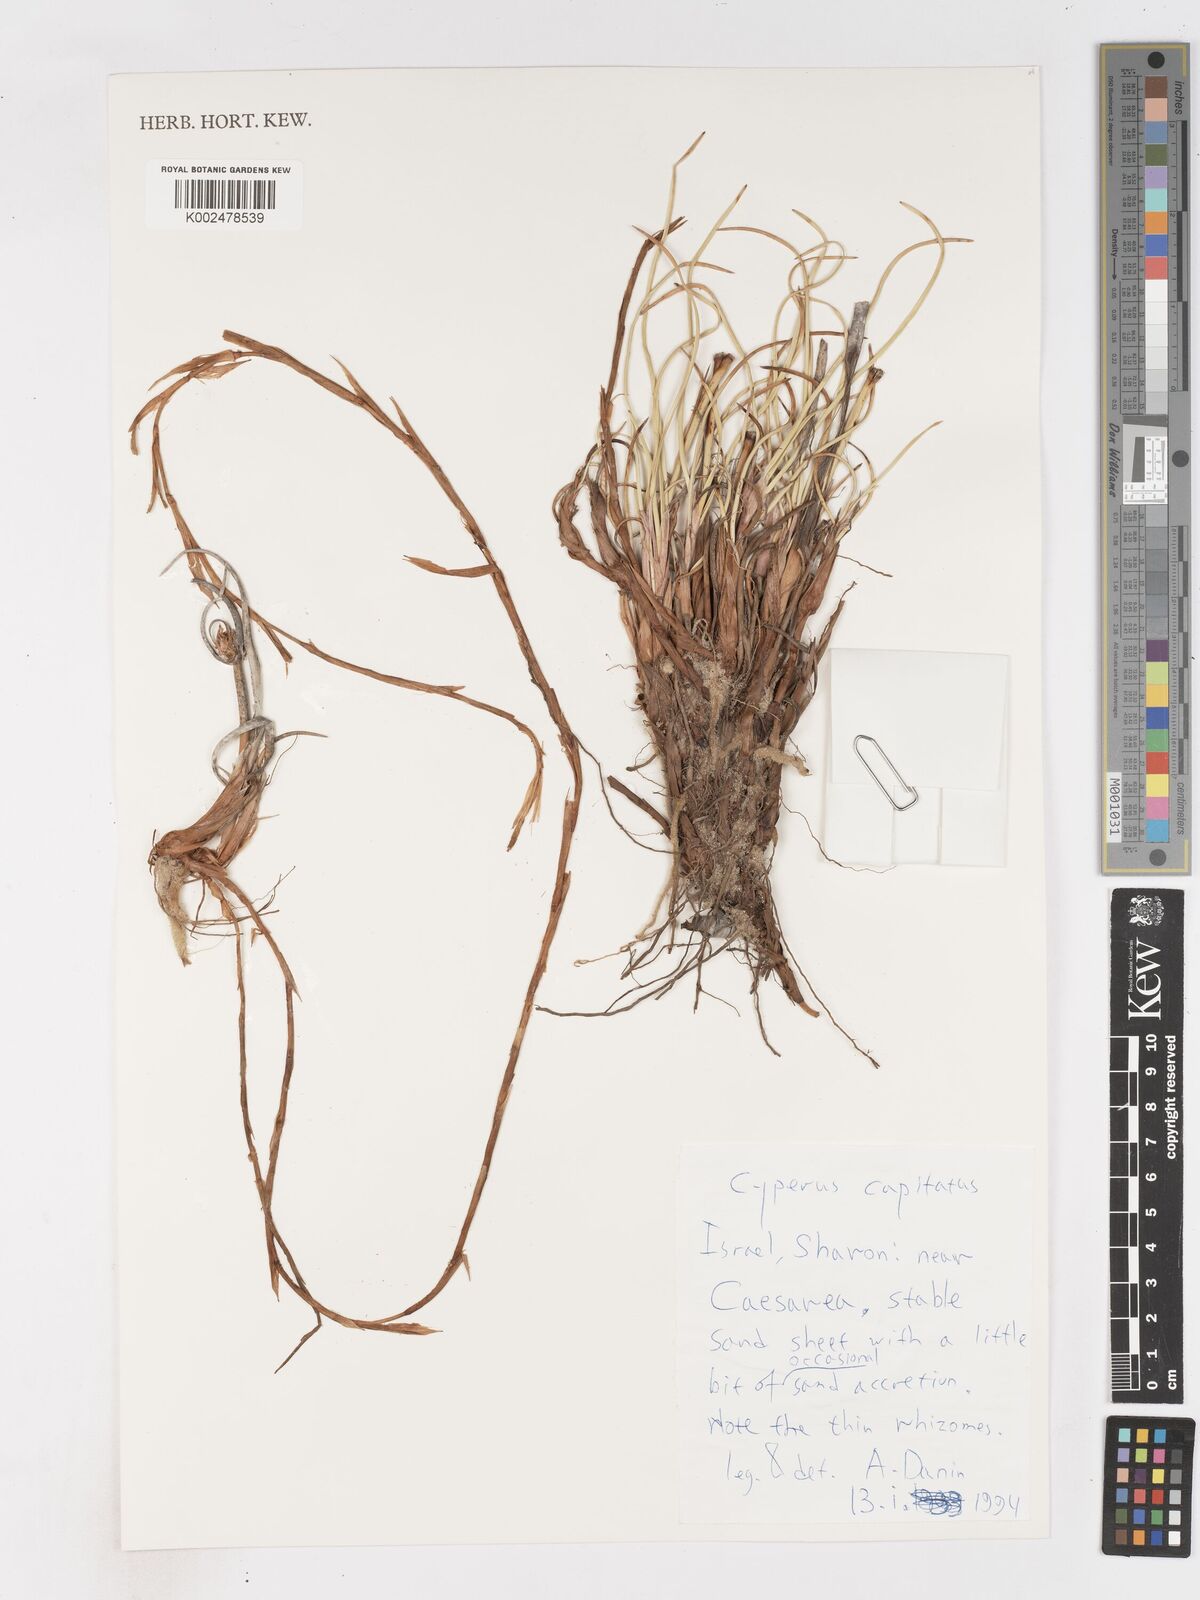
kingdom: Plantae
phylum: Tracheophyta
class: Liliopsida
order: Poales
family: Cyperaceae
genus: Cyperus
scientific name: Cyperus capitatus
